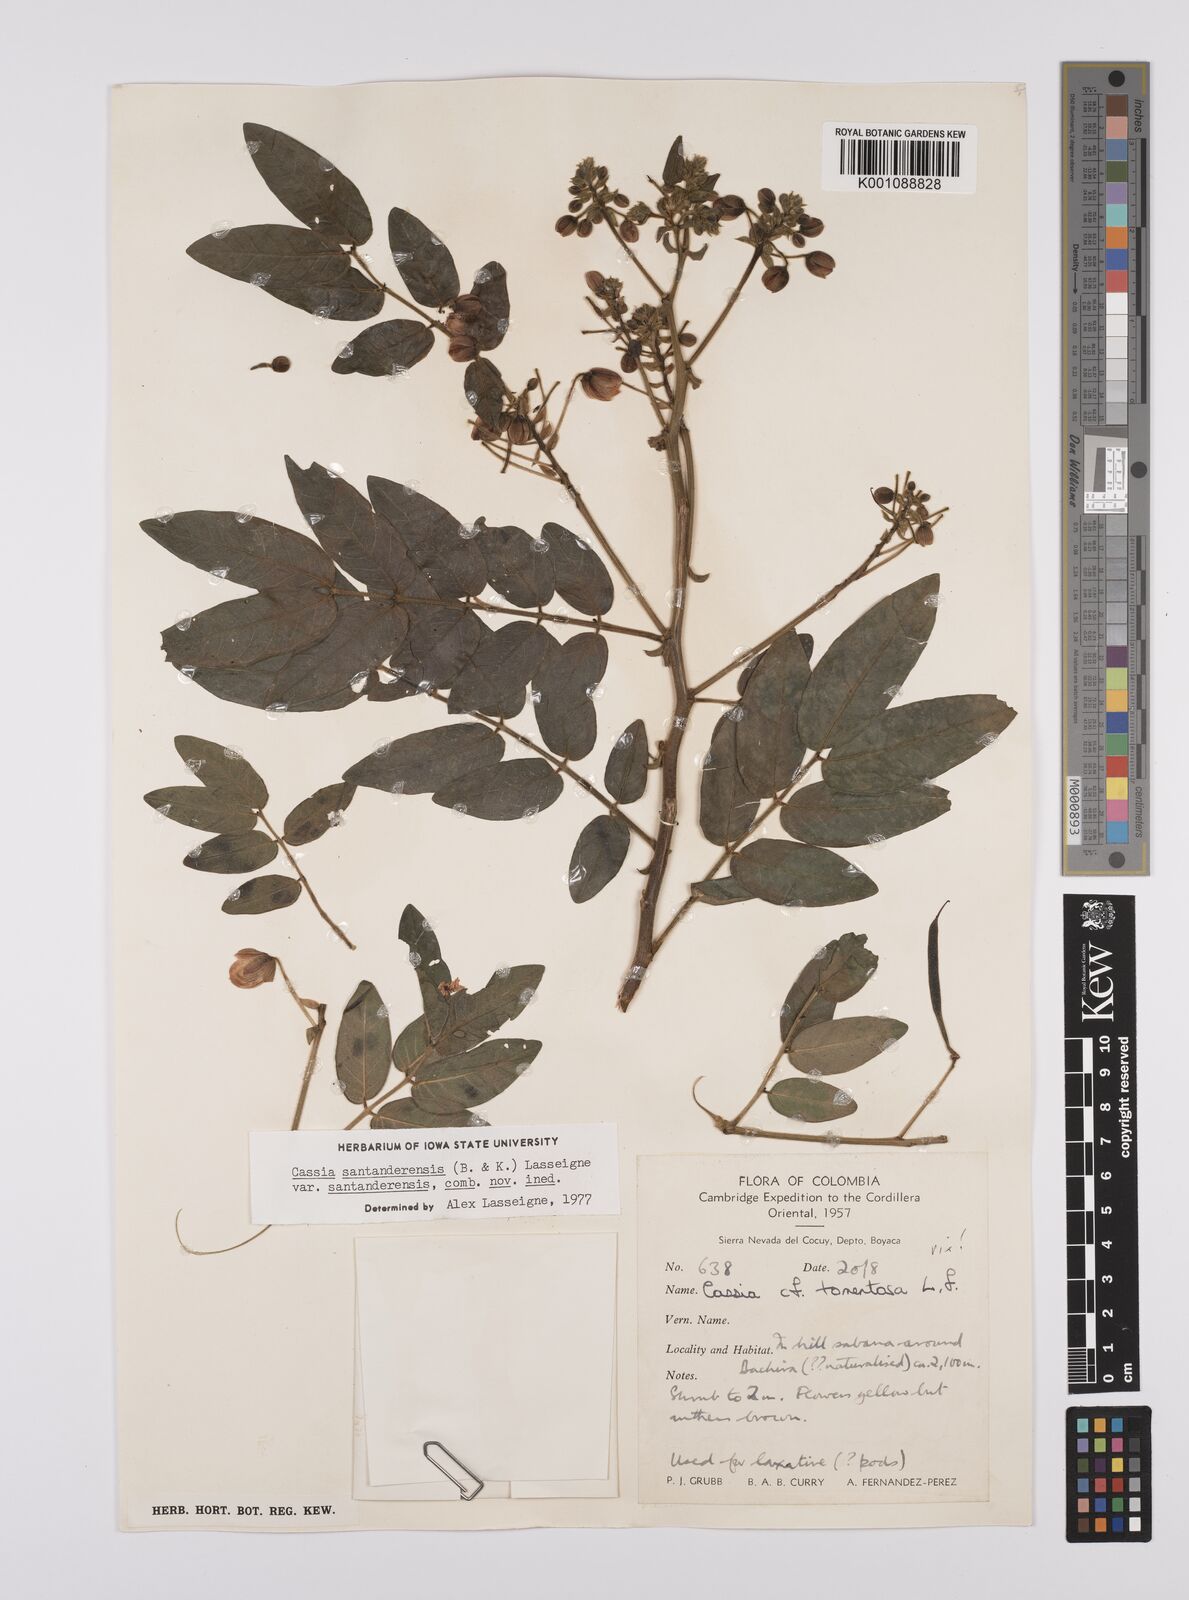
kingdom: Plantae
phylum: Tracheophyta
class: Magnoliopsida
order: Fabales
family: Fabaceae
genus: Senna
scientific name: Senna santanderensis
